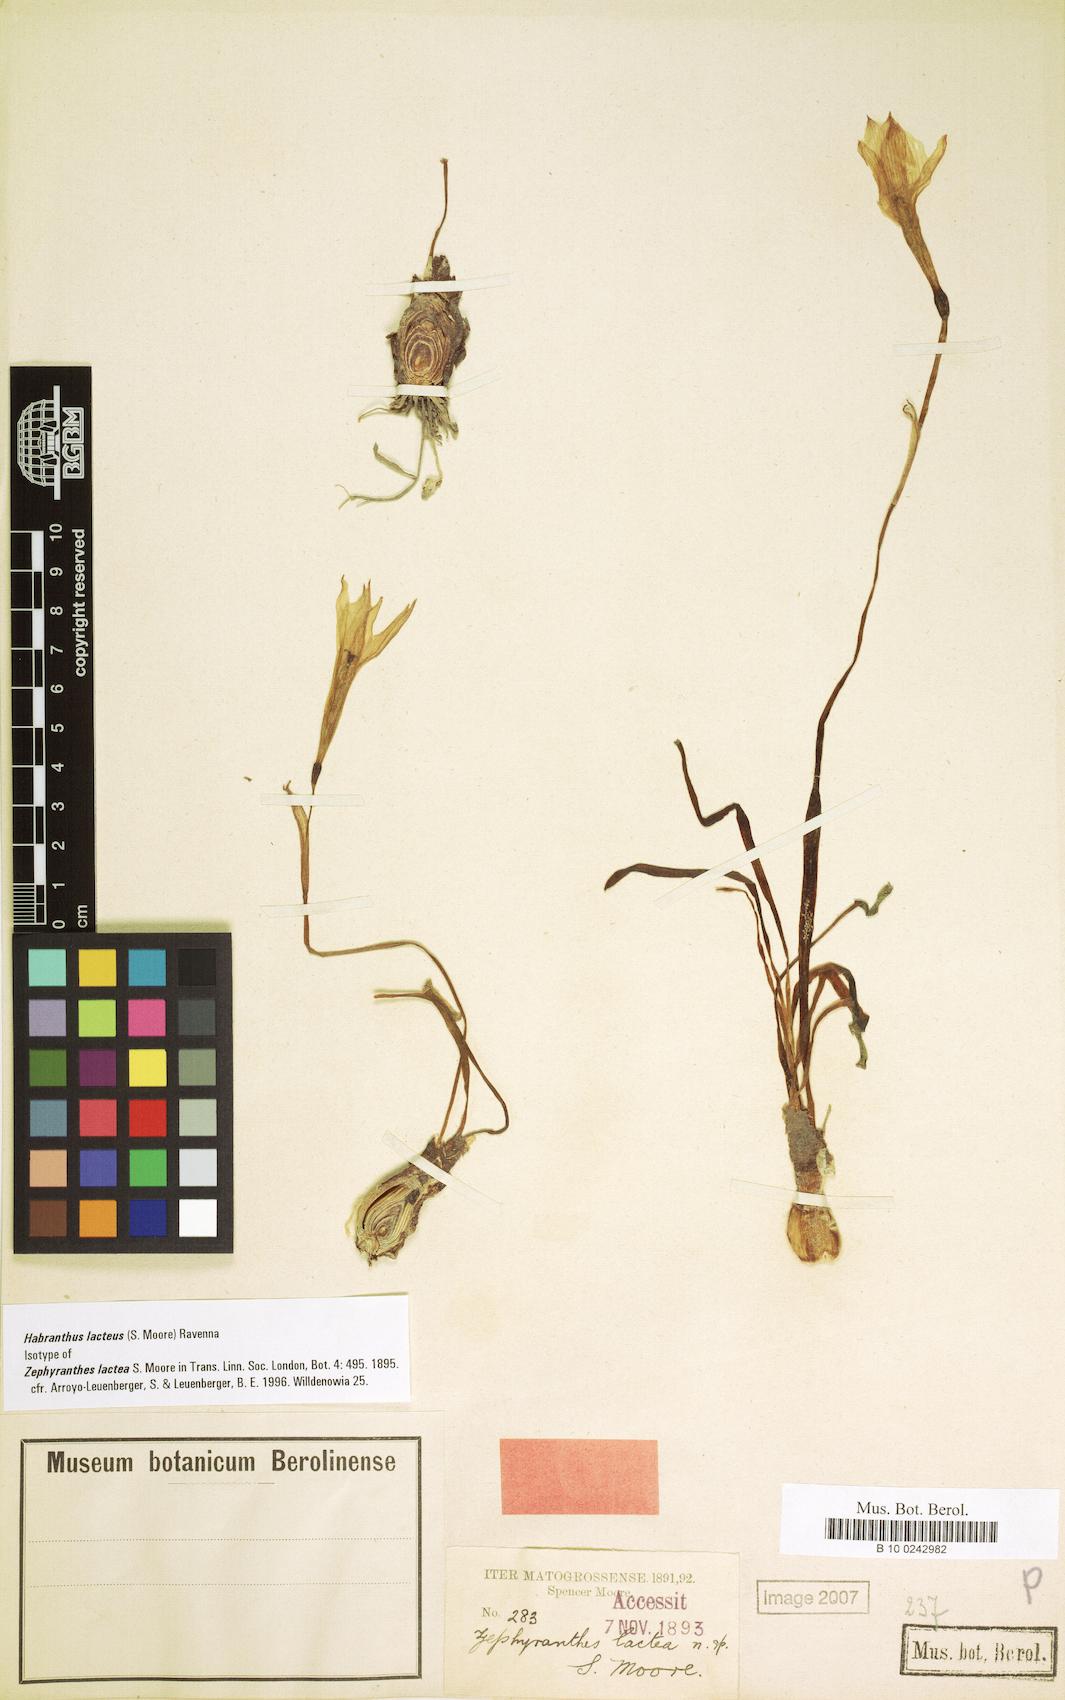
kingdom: Plantae
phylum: Tracheophyta
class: Liliopsida
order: Asparagales
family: Amaryllidaceae
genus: Zephyranthes
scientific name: Zephyranthes lactea
